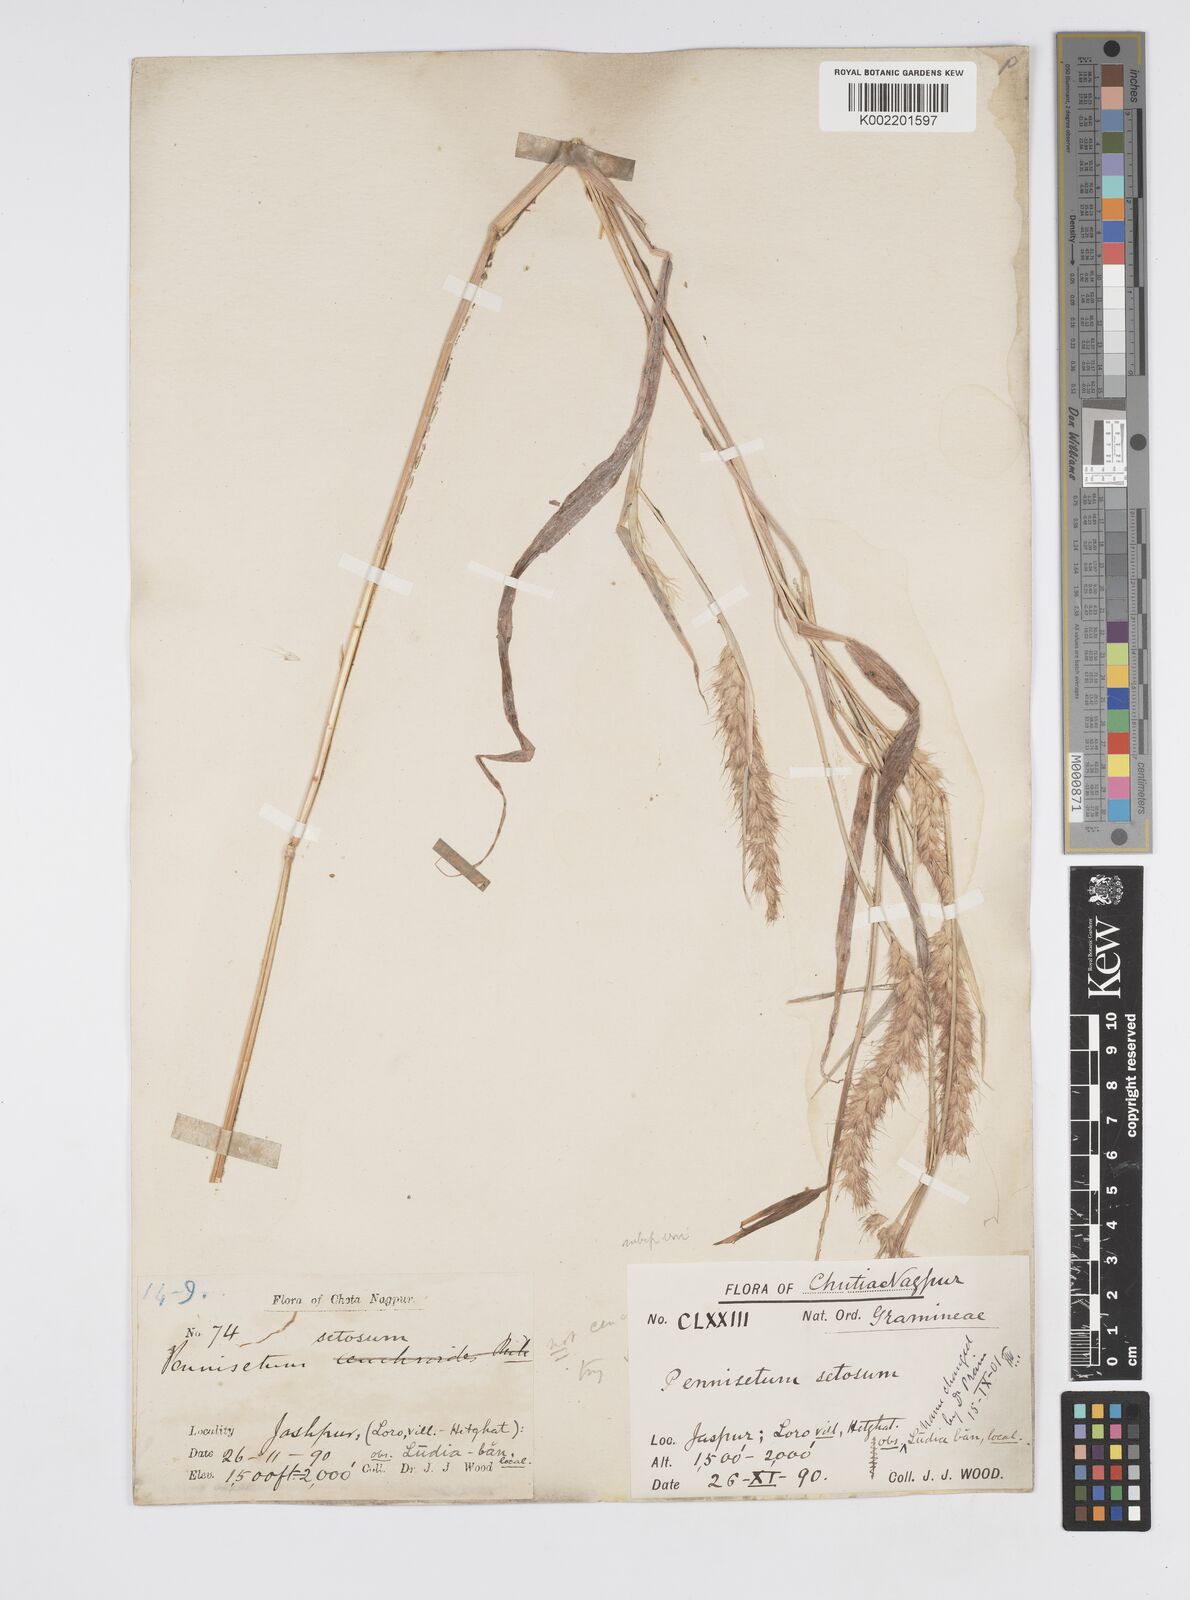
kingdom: Plantae
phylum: Tracheophyta
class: Liliopsida
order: Poales
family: Poaceae
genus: Cenchrus
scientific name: Cenchrus pedicellatus
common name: Hairy fountain grass
